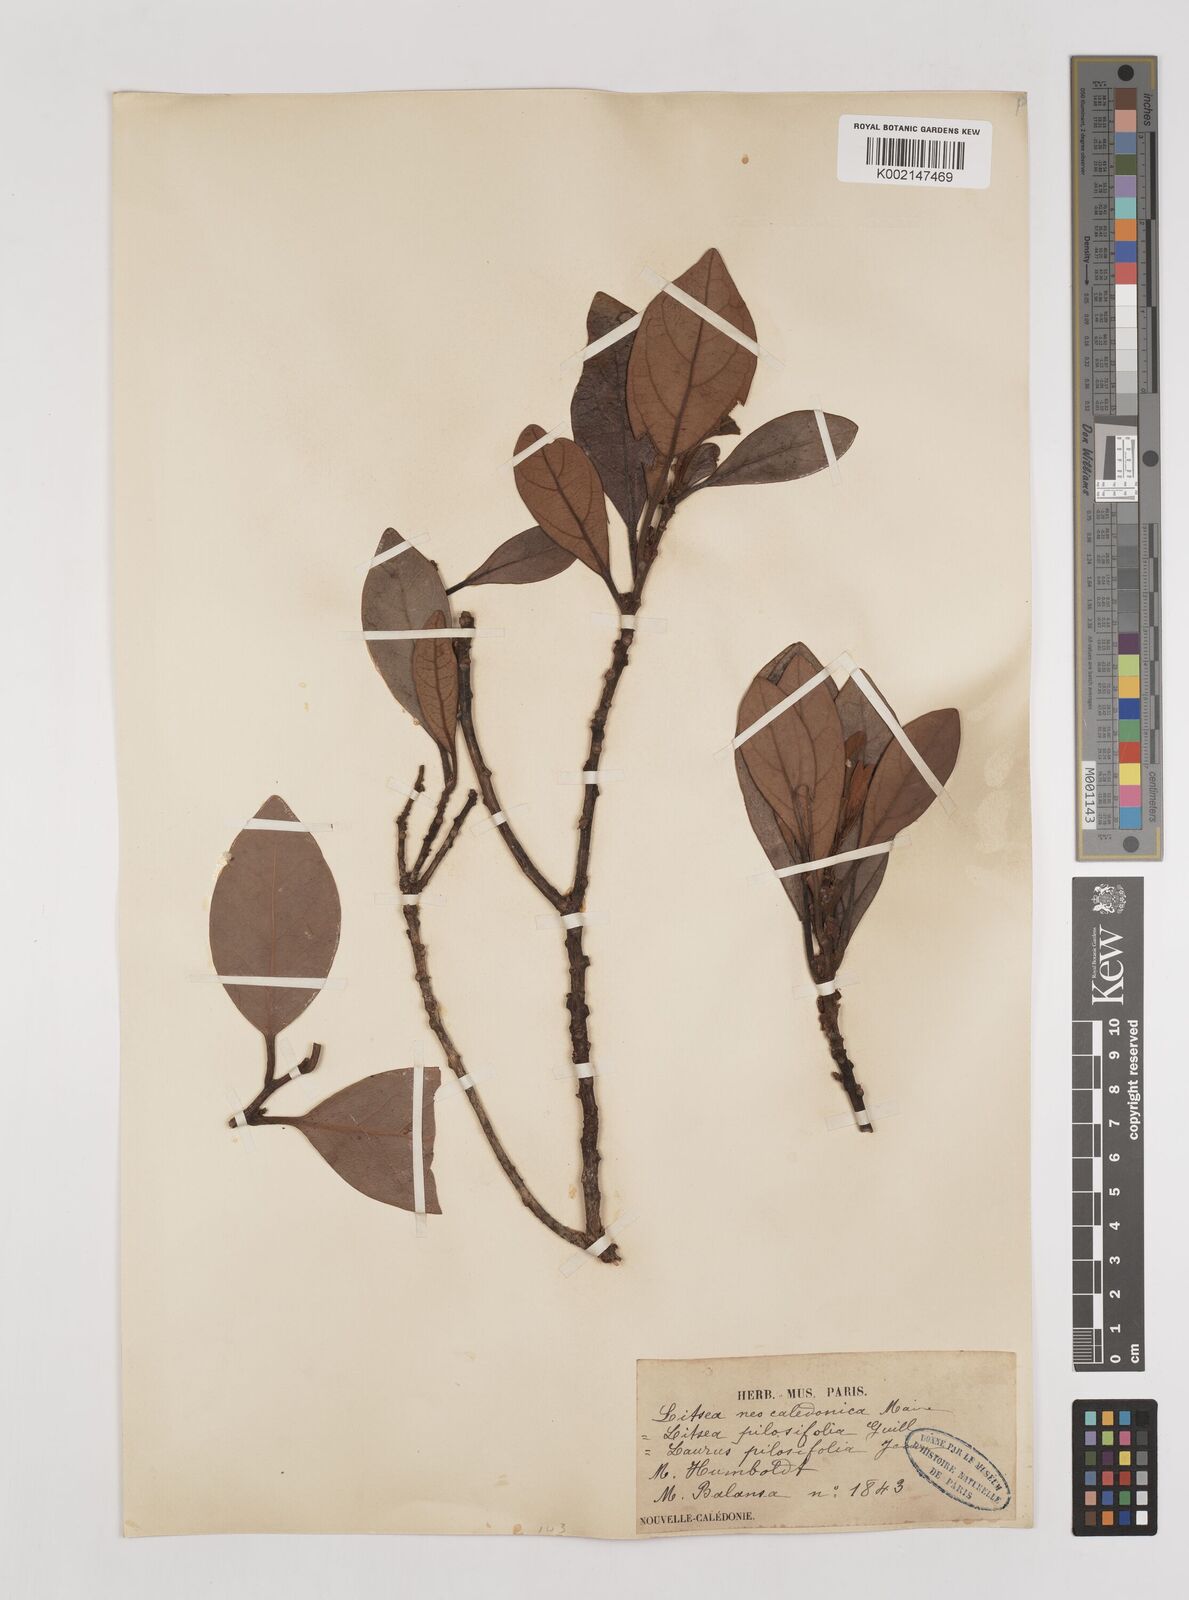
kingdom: Plantae
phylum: Tracheophyta
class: Magnoliopsida
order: Laurales
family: Lauraceae
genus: Litsea
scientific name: Litsea neocaledonica
